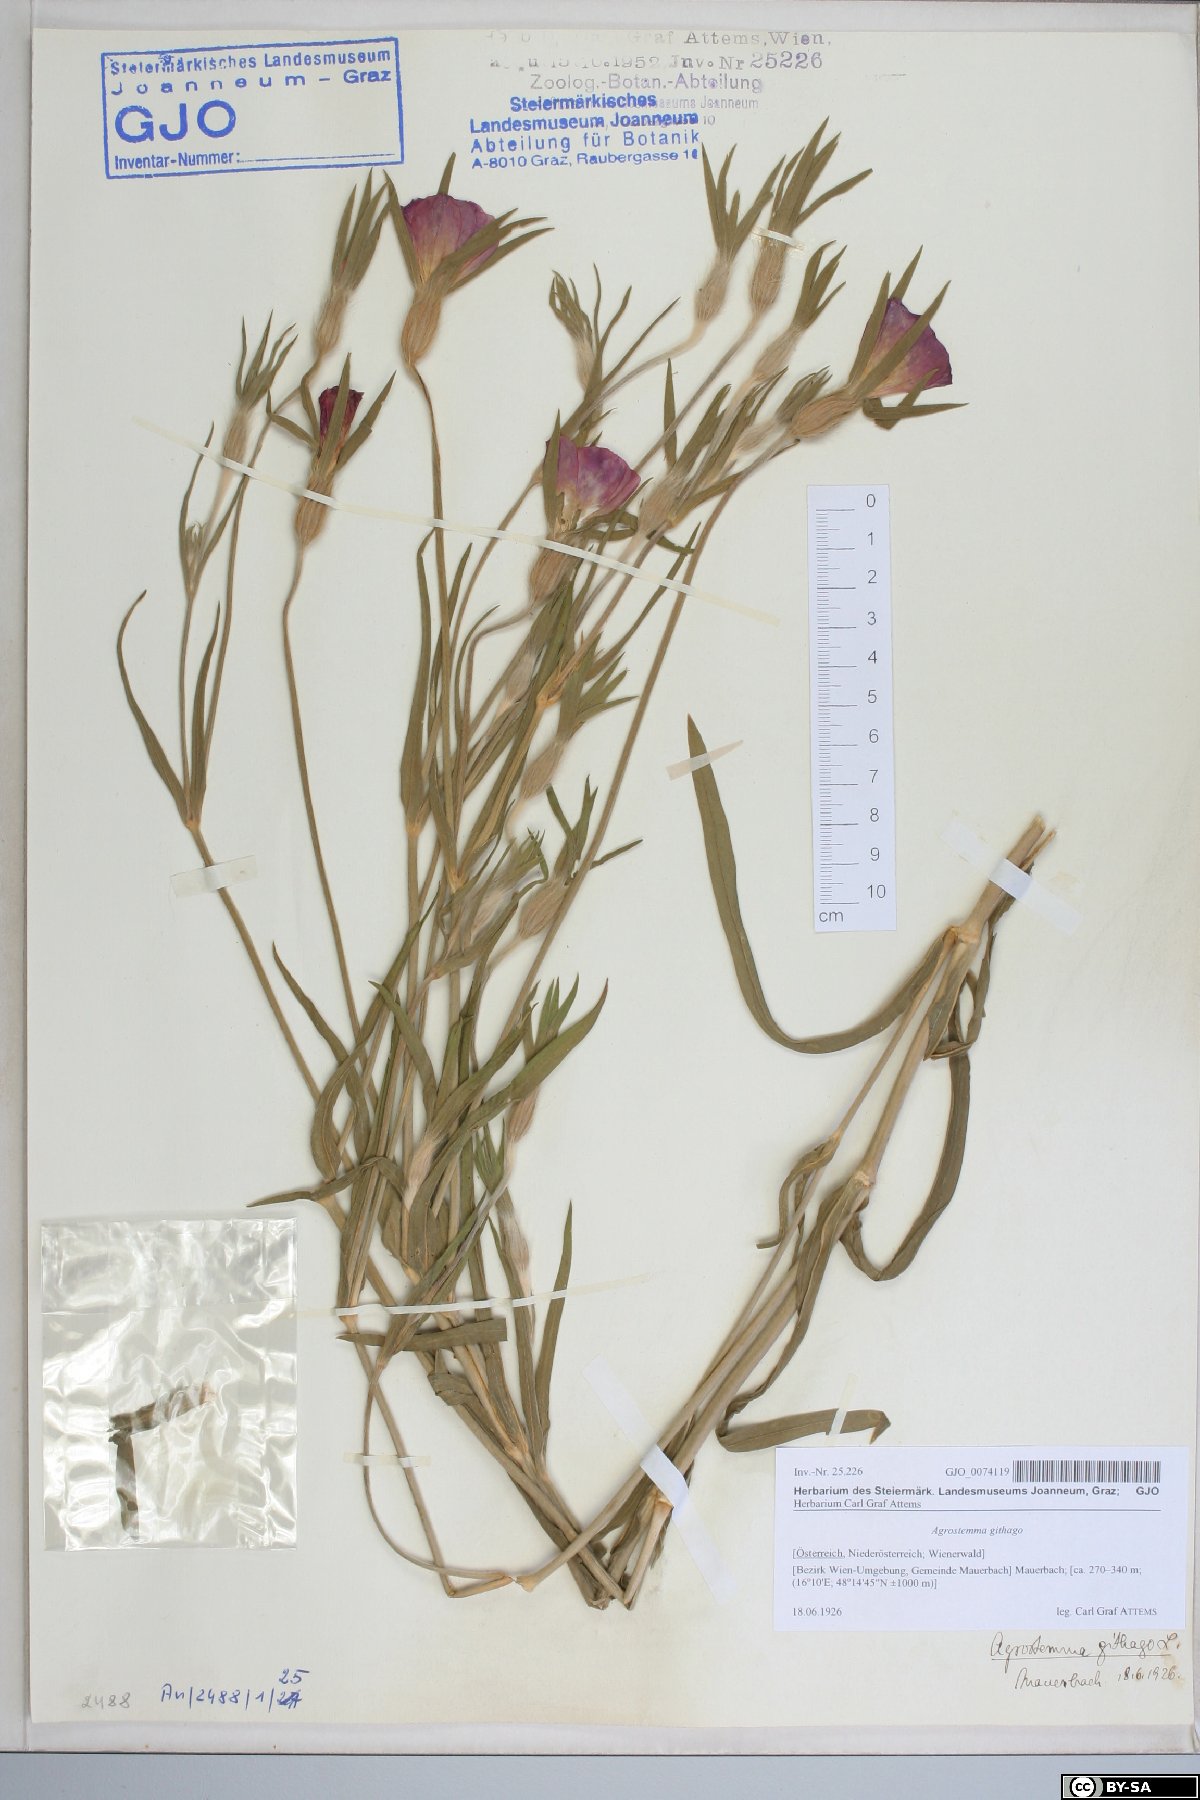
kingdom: Plantae
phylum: Tracheophyta
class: Magnoliopsida
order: Caryophyllales
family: Caryophyllaceae
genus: Agrostemma
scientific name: Agrostemma githago
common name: Common corncockle
